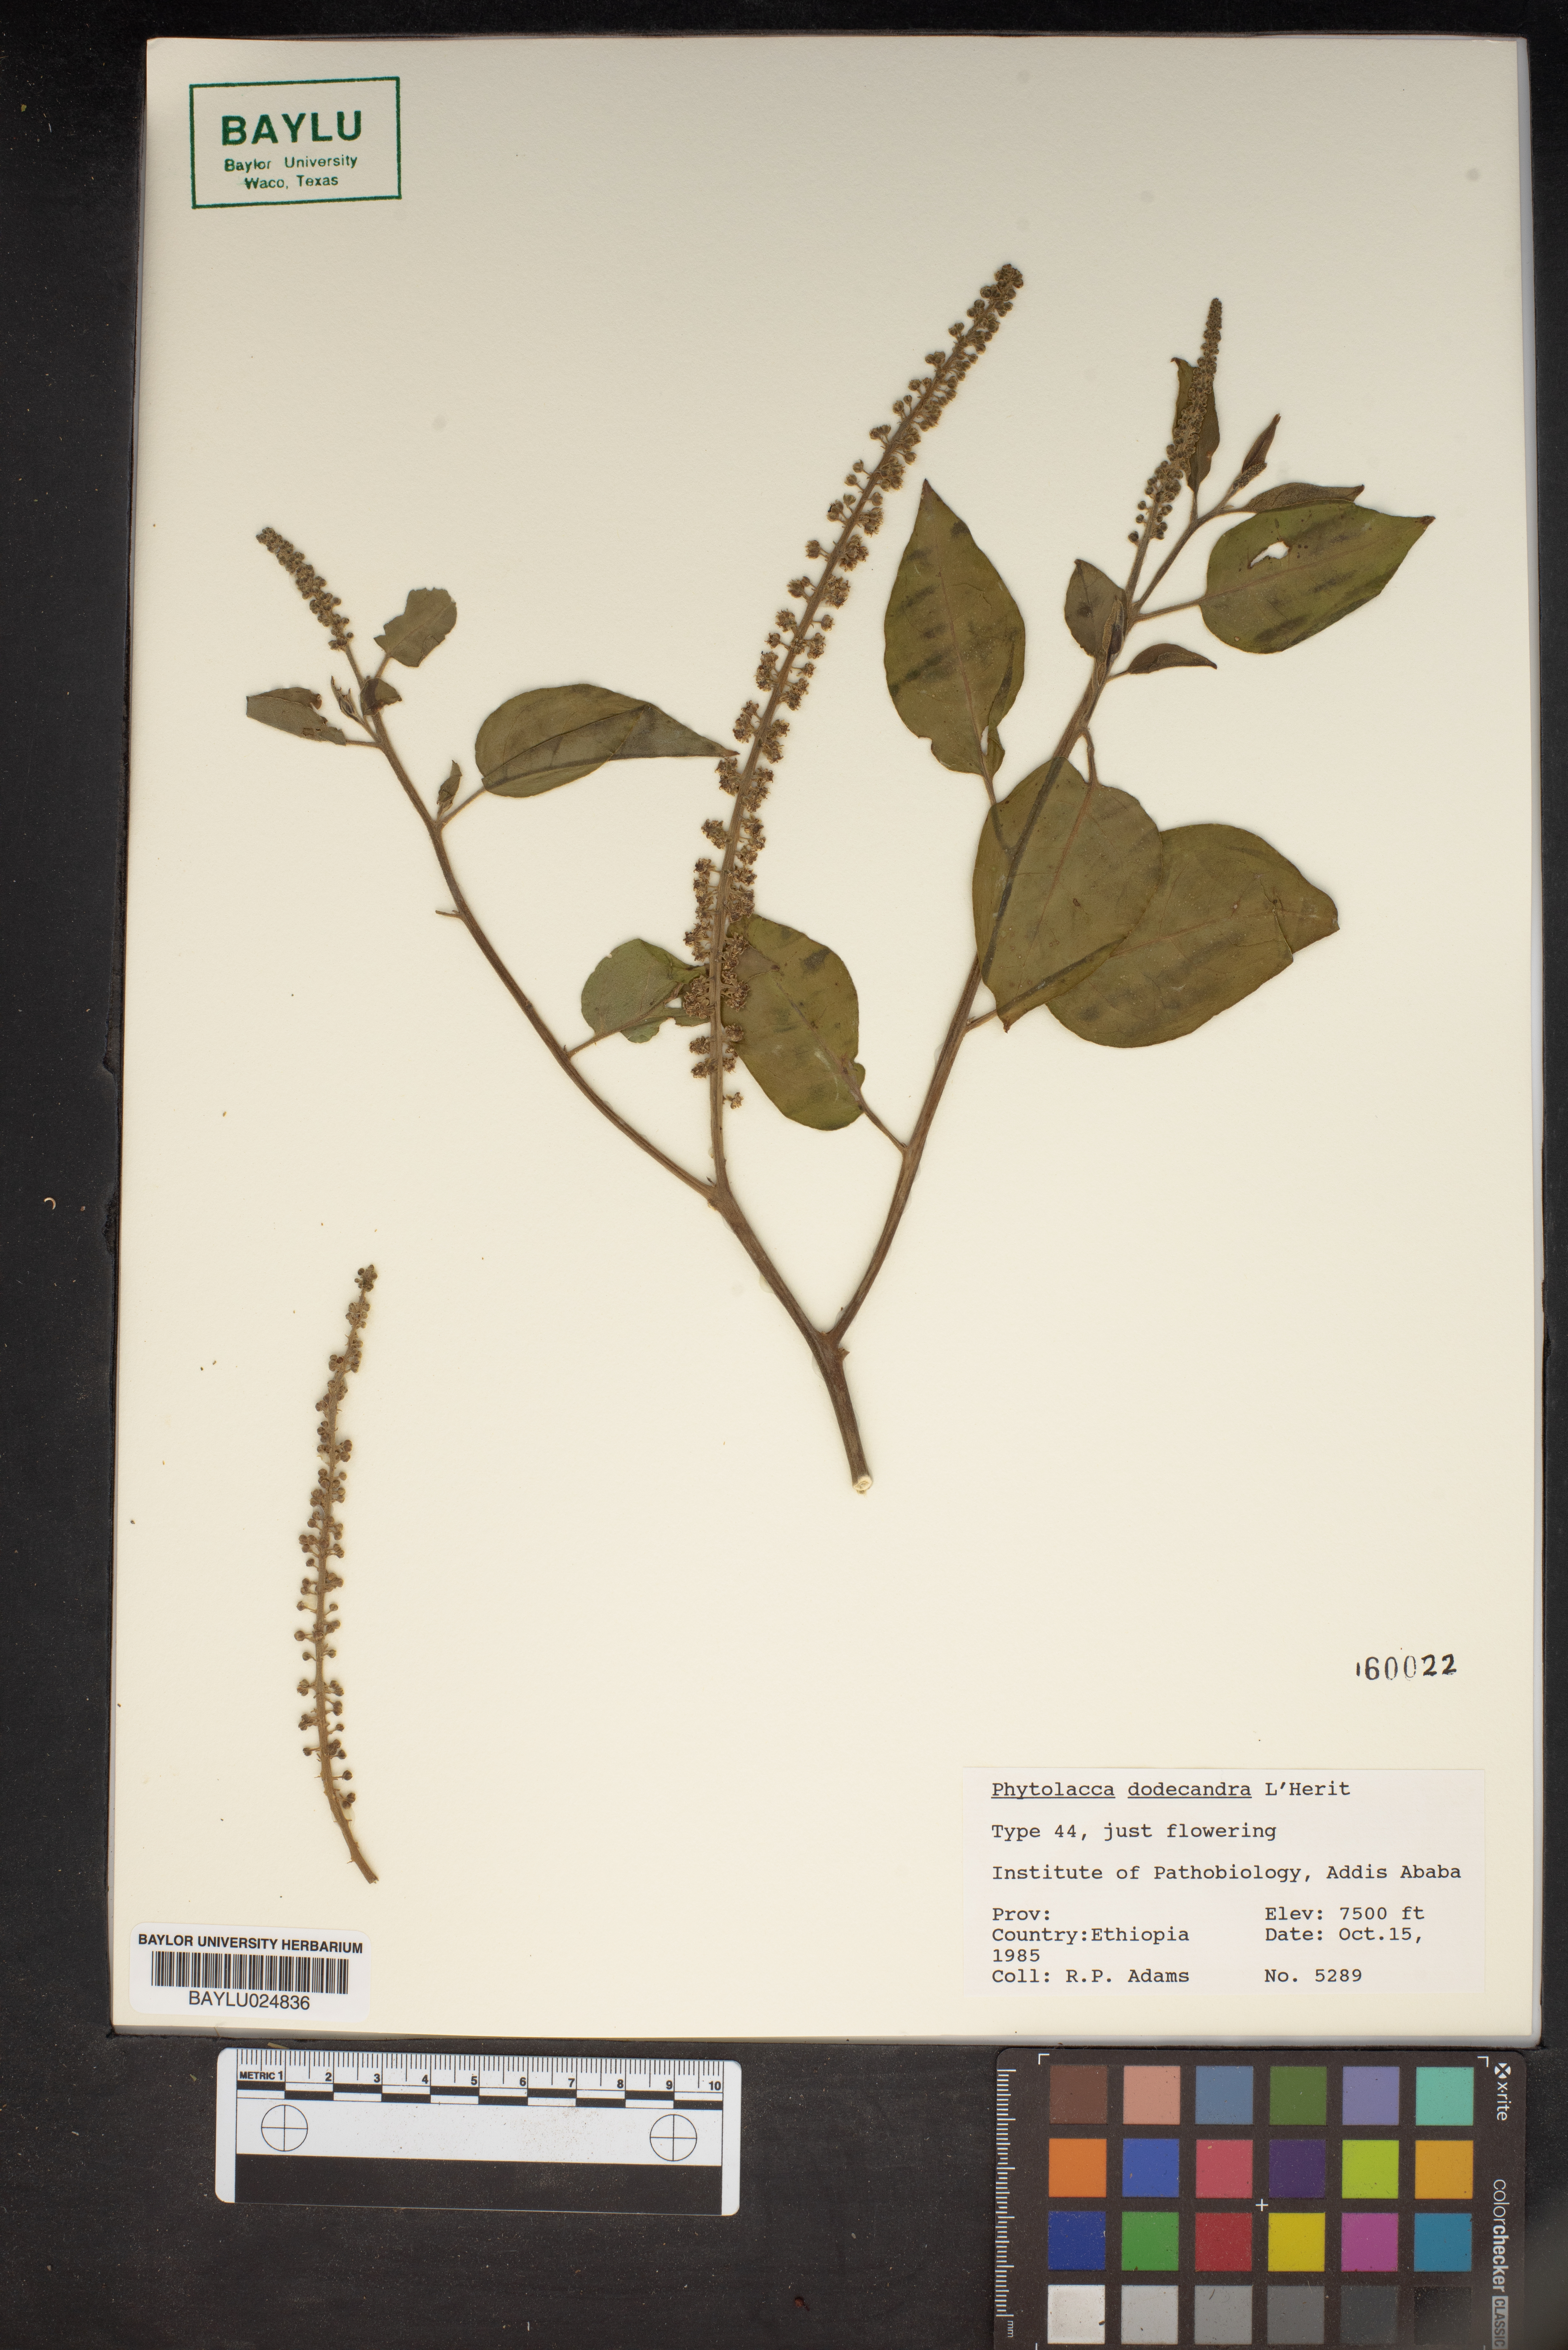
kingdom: Plantae
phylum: Tracheophyta
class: Magnoliopsida
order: Caryophyllales
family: Phytolaccaceae
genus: Phytolacca
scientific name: Phytolacca dodecandra
